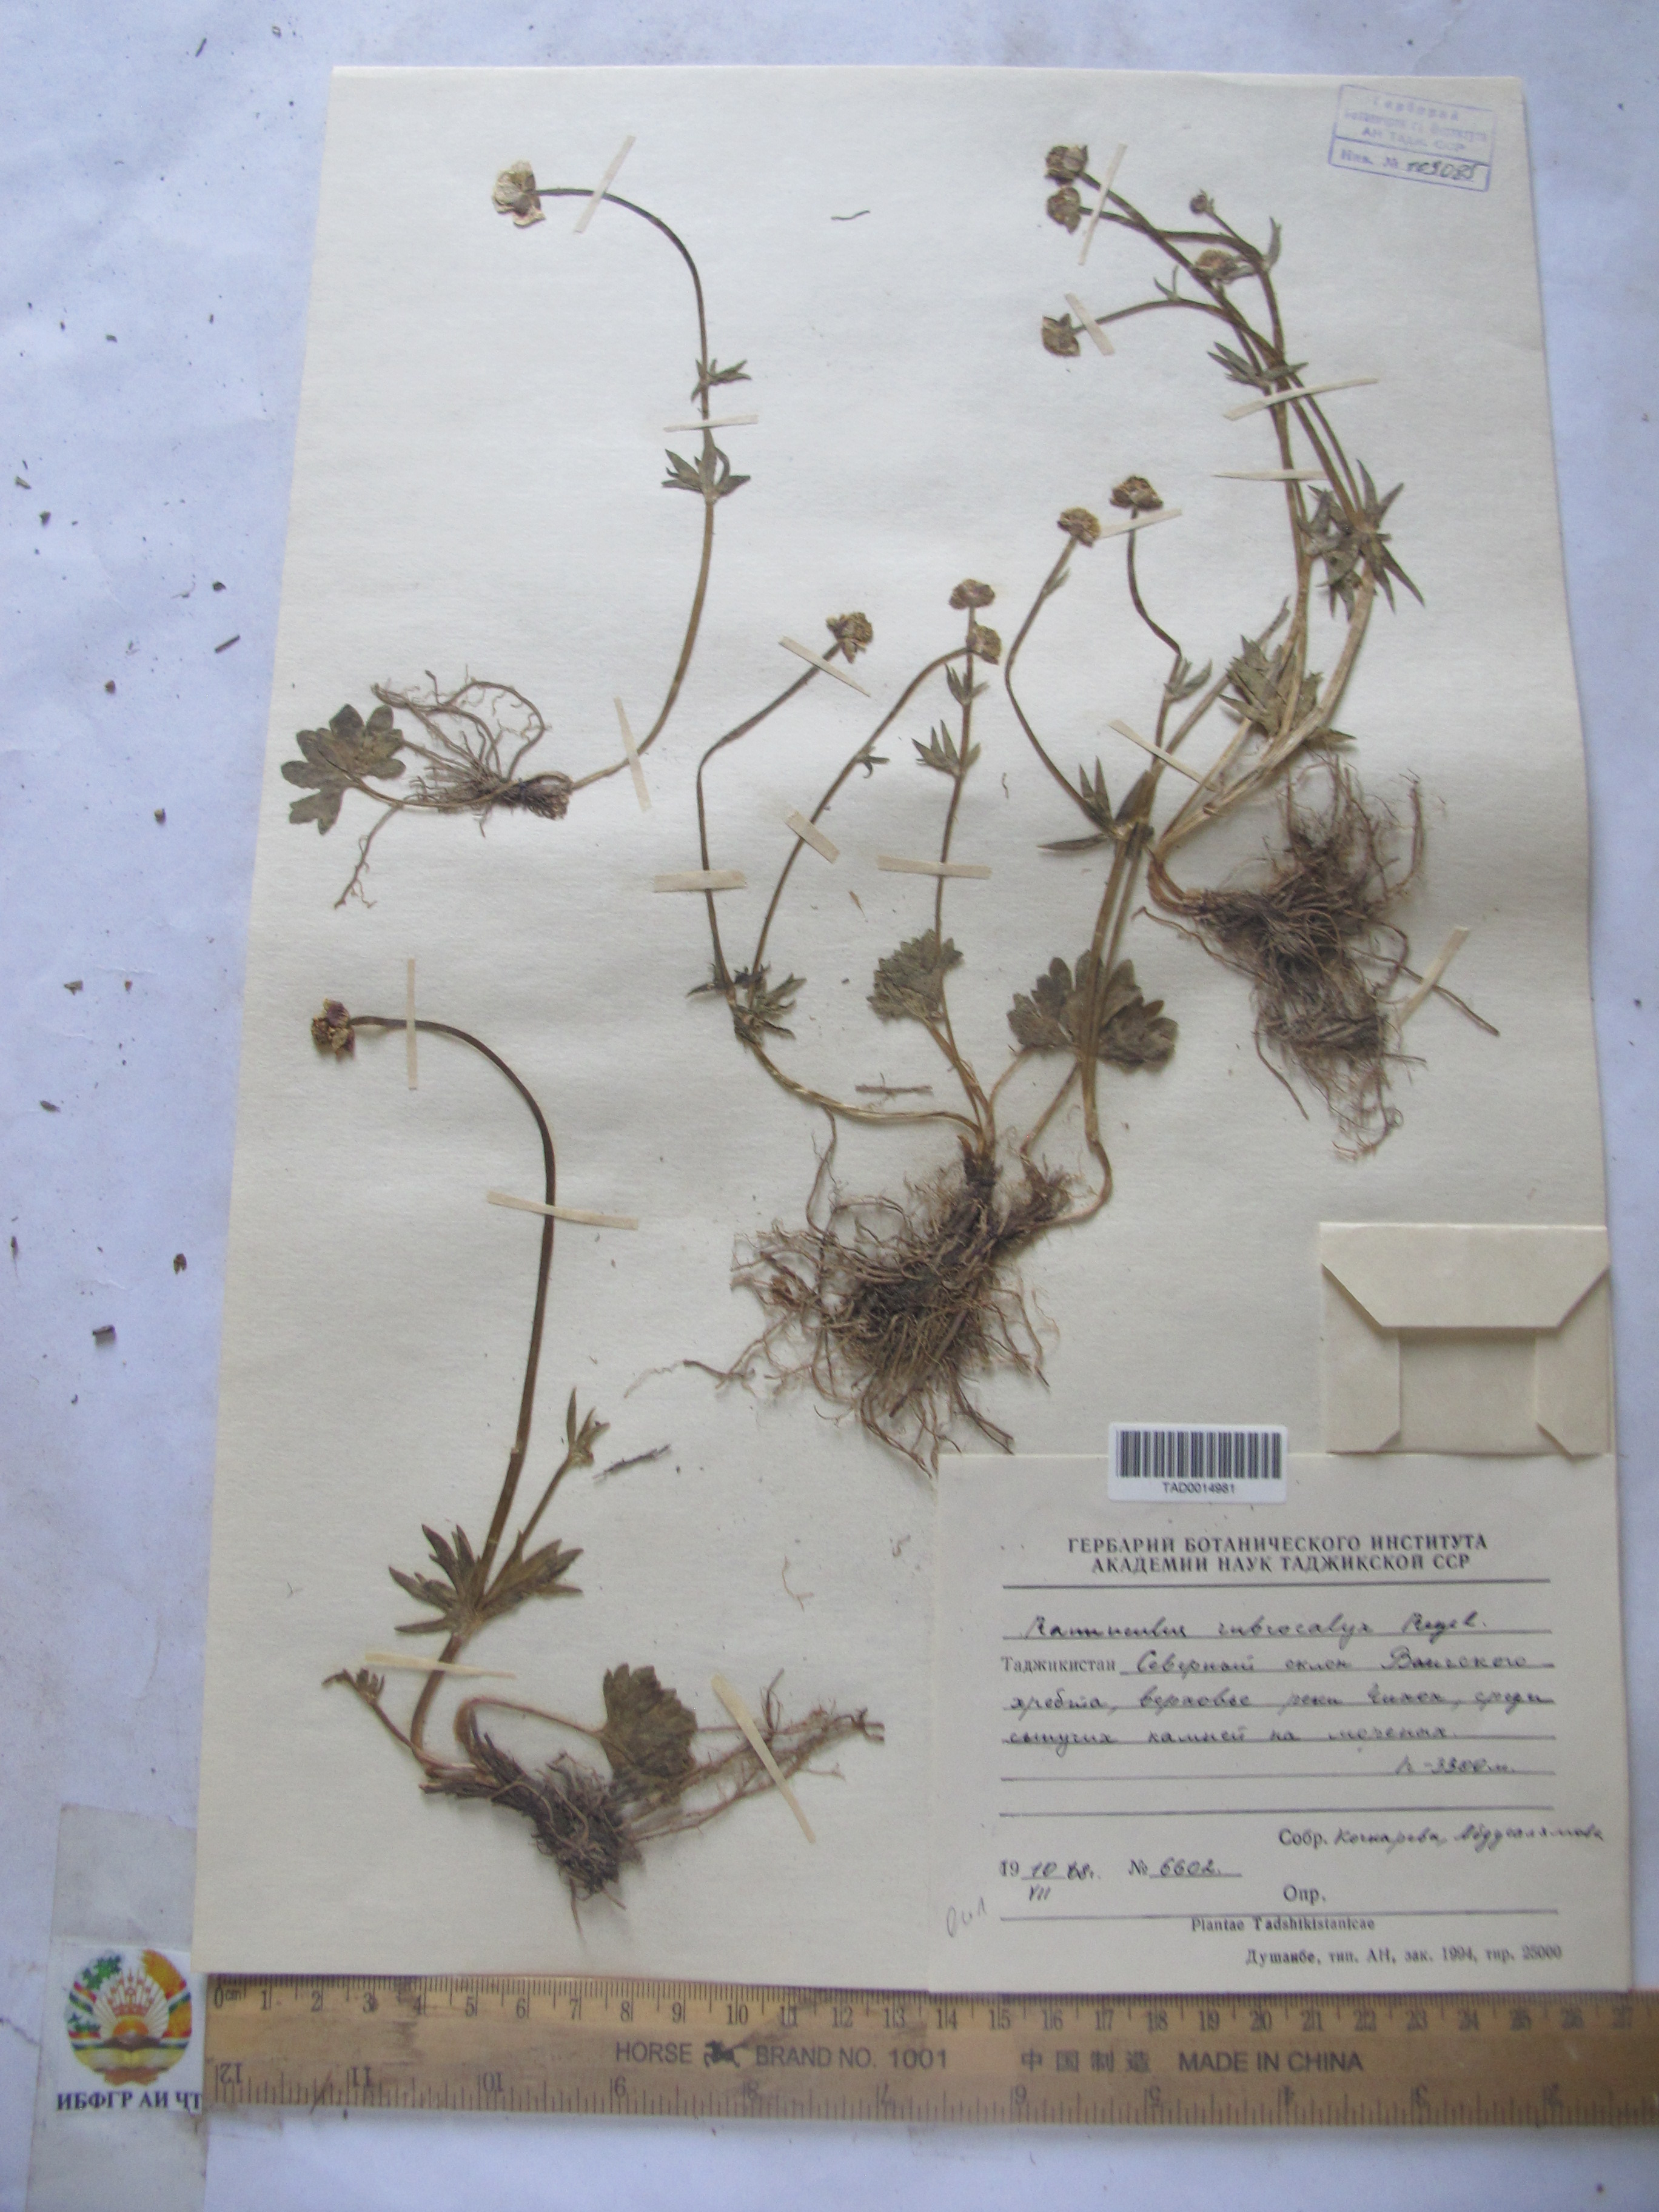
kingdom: Plantae
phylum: Tracheophyta
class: Magnoliopsida
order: Ranunculales
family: Ranunculaceae
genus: Ranunculus
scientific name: Ranunculus rubrocalyx
